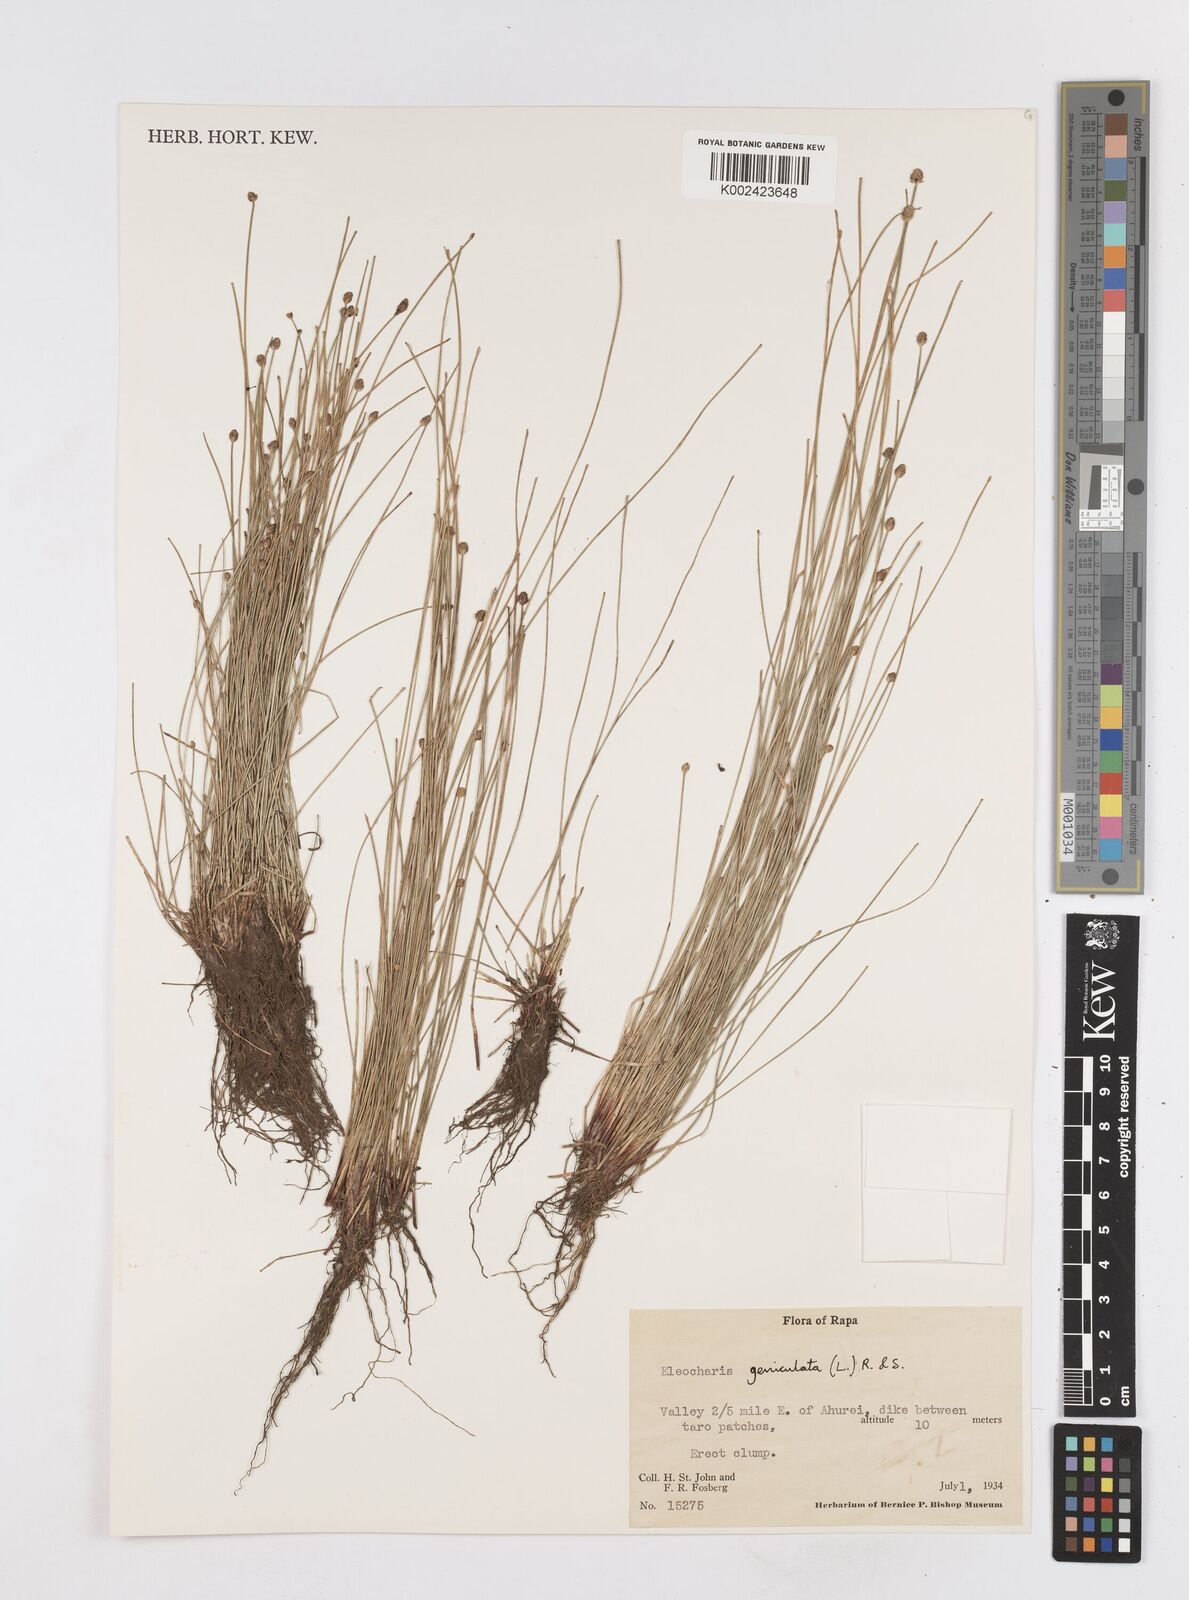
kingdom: Plantae
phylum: Tracheophyta
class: Liliopsida
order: Poales
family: Cyperaceae
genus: Eleocharis
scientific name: Eleocharis geniculata
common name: Canada spikesedge
